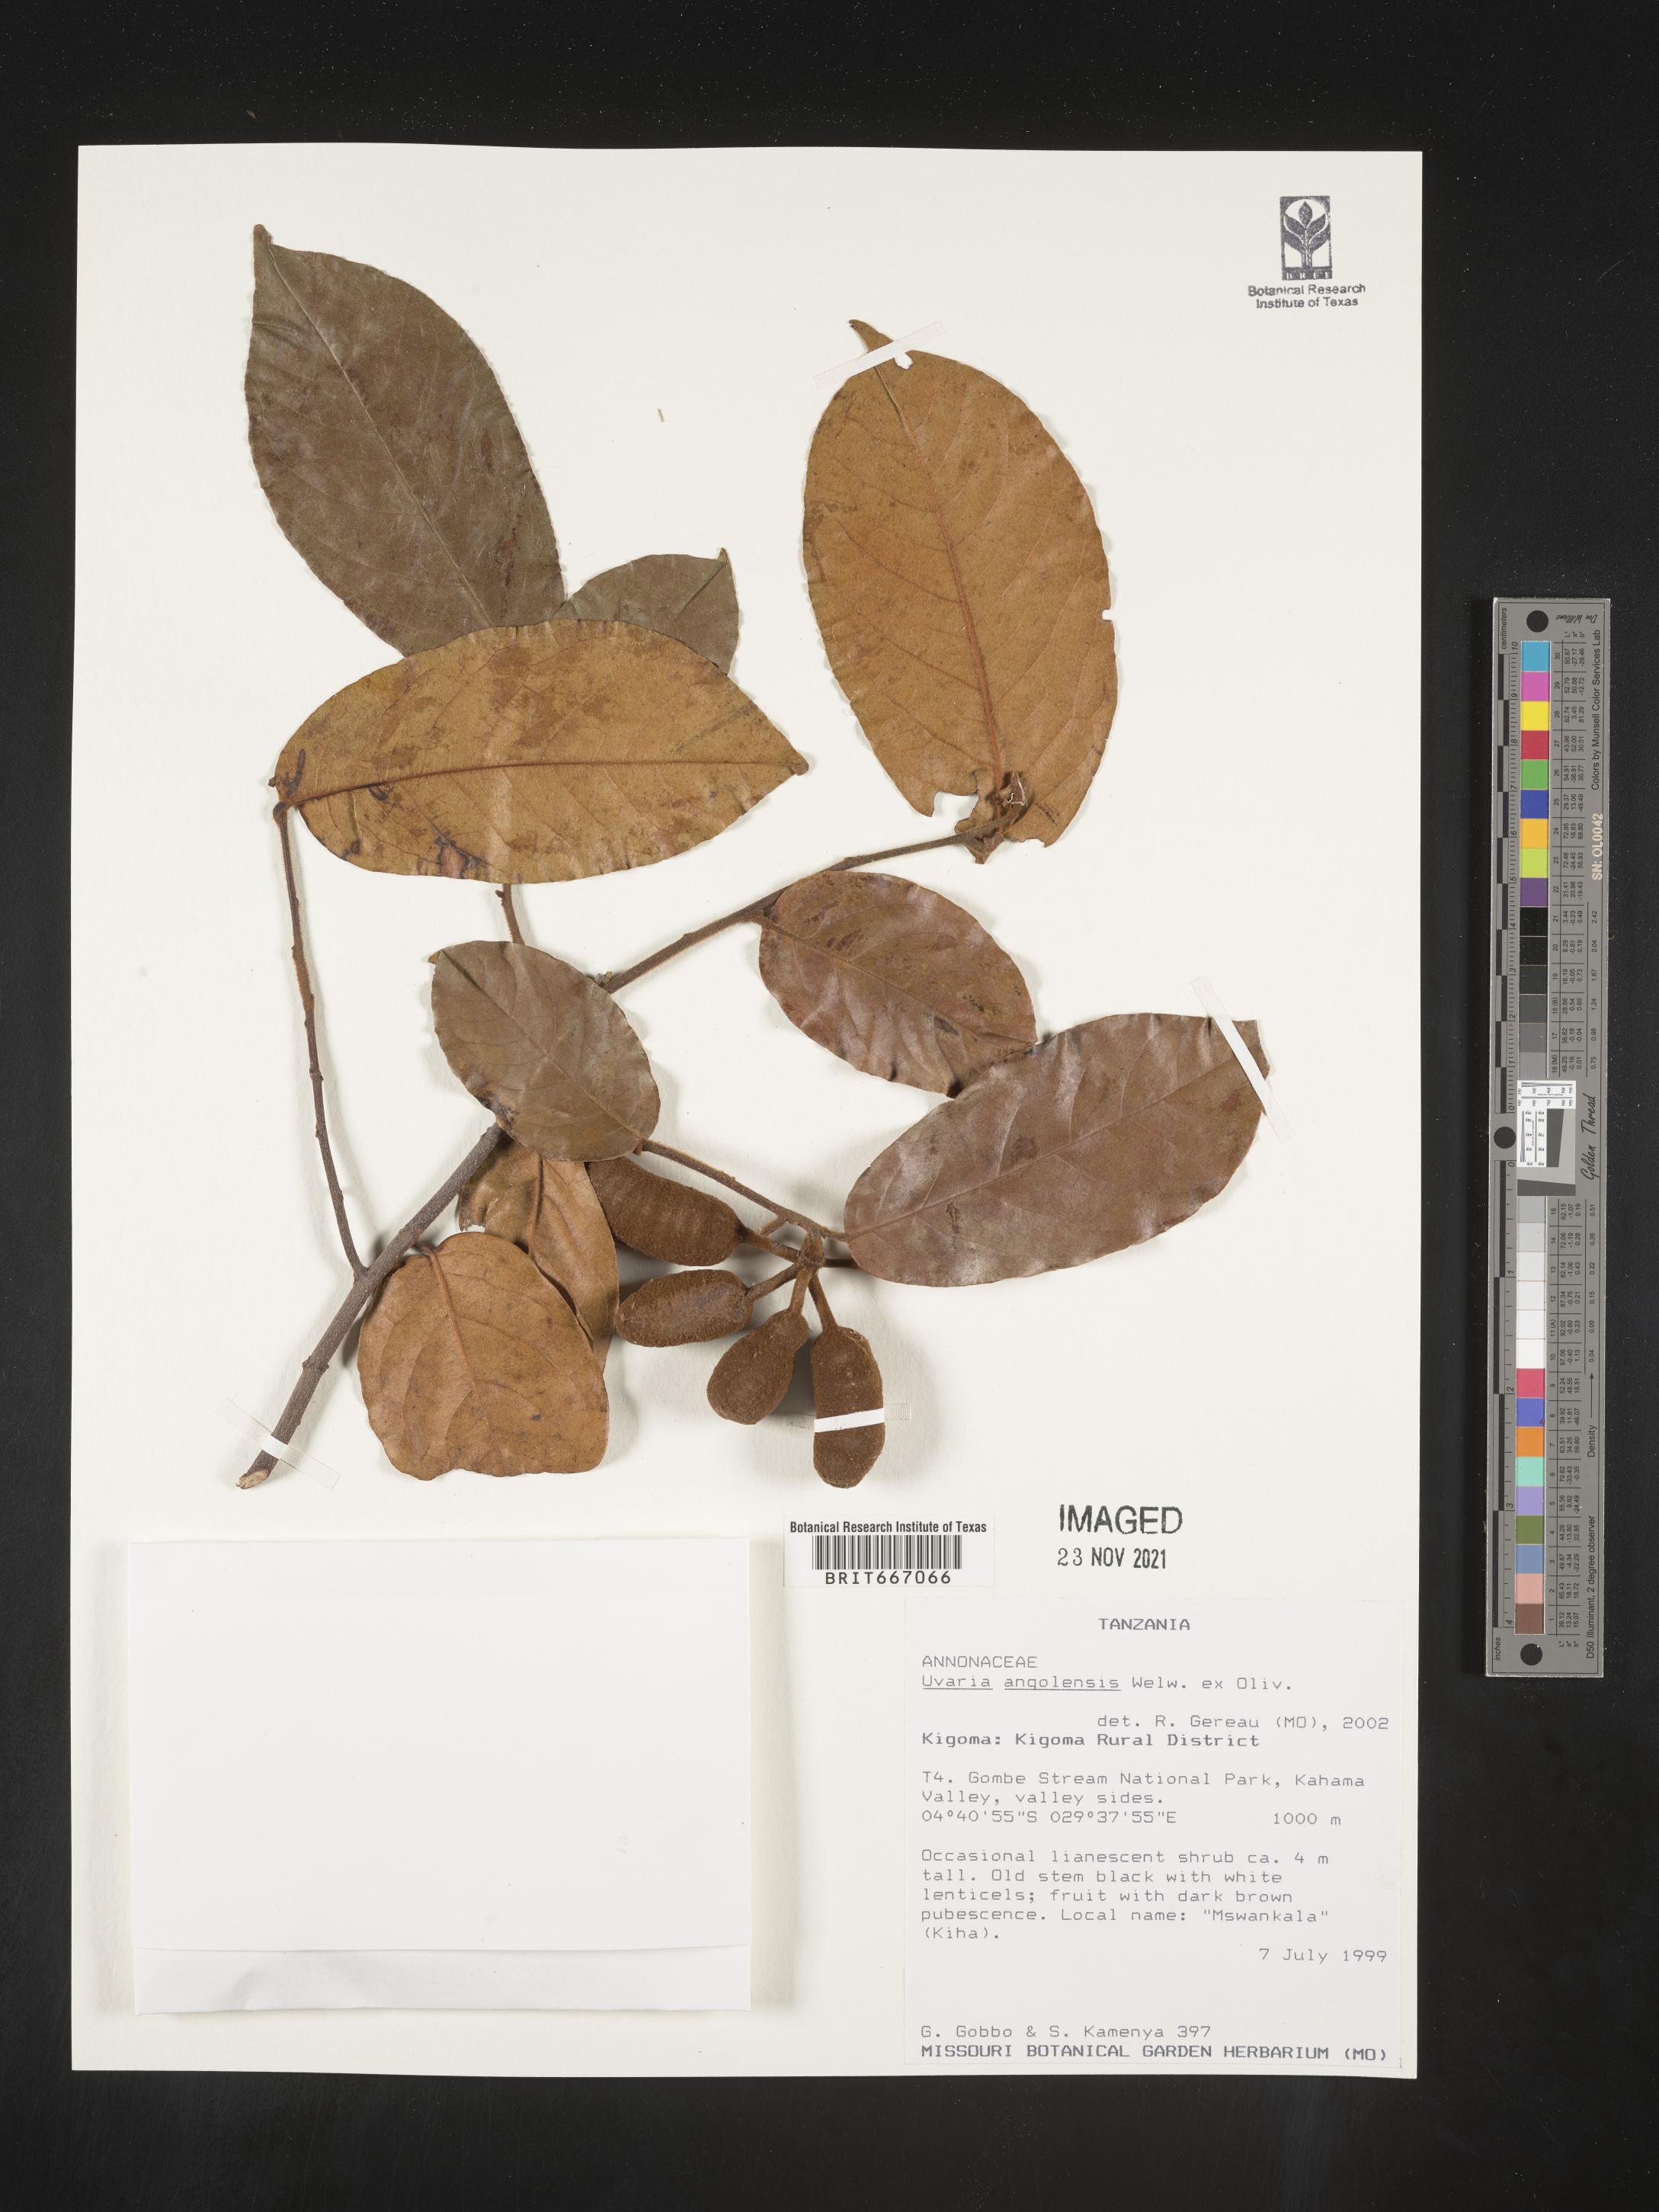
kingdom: Plantae
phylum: Tracheophyta
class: Magnoliopsida
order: Magnoliales
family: Annonaceae
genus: Uvaria
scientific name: Uvaria
